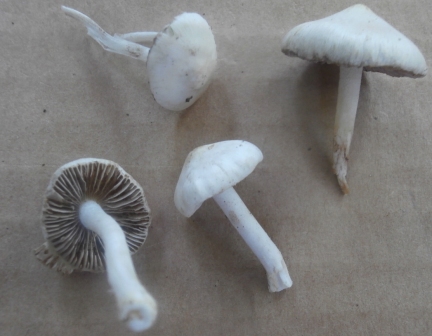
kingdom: Fungi
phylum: Basidiomycota
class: Agaricomycetes
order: Agaricales
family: Inocybaceae
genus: Inocybe
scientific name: Inocybe
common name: almindelig trævlhat
